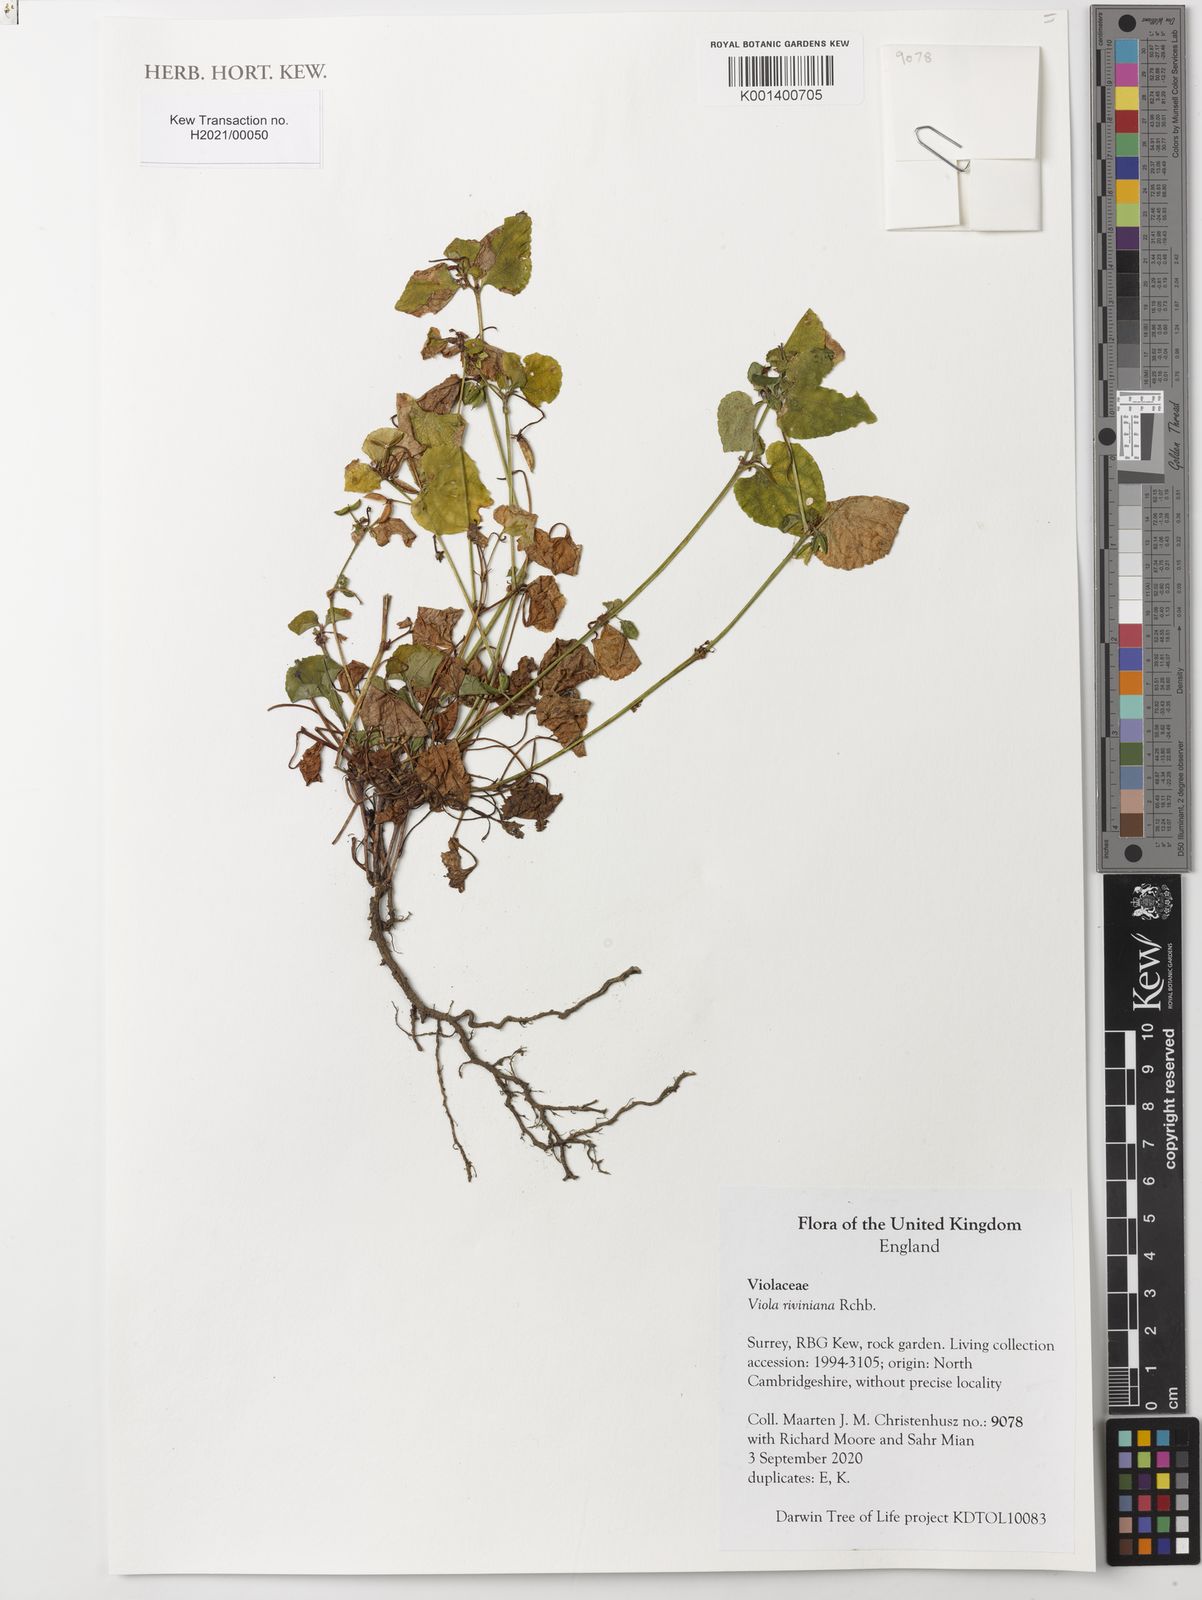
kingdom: Plantae
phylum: Tracheophyta
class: Magnoliopsida
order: Malpighiales
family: Violaceae
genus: Viola
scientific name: Viola riviniana
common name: Common dog-violet
